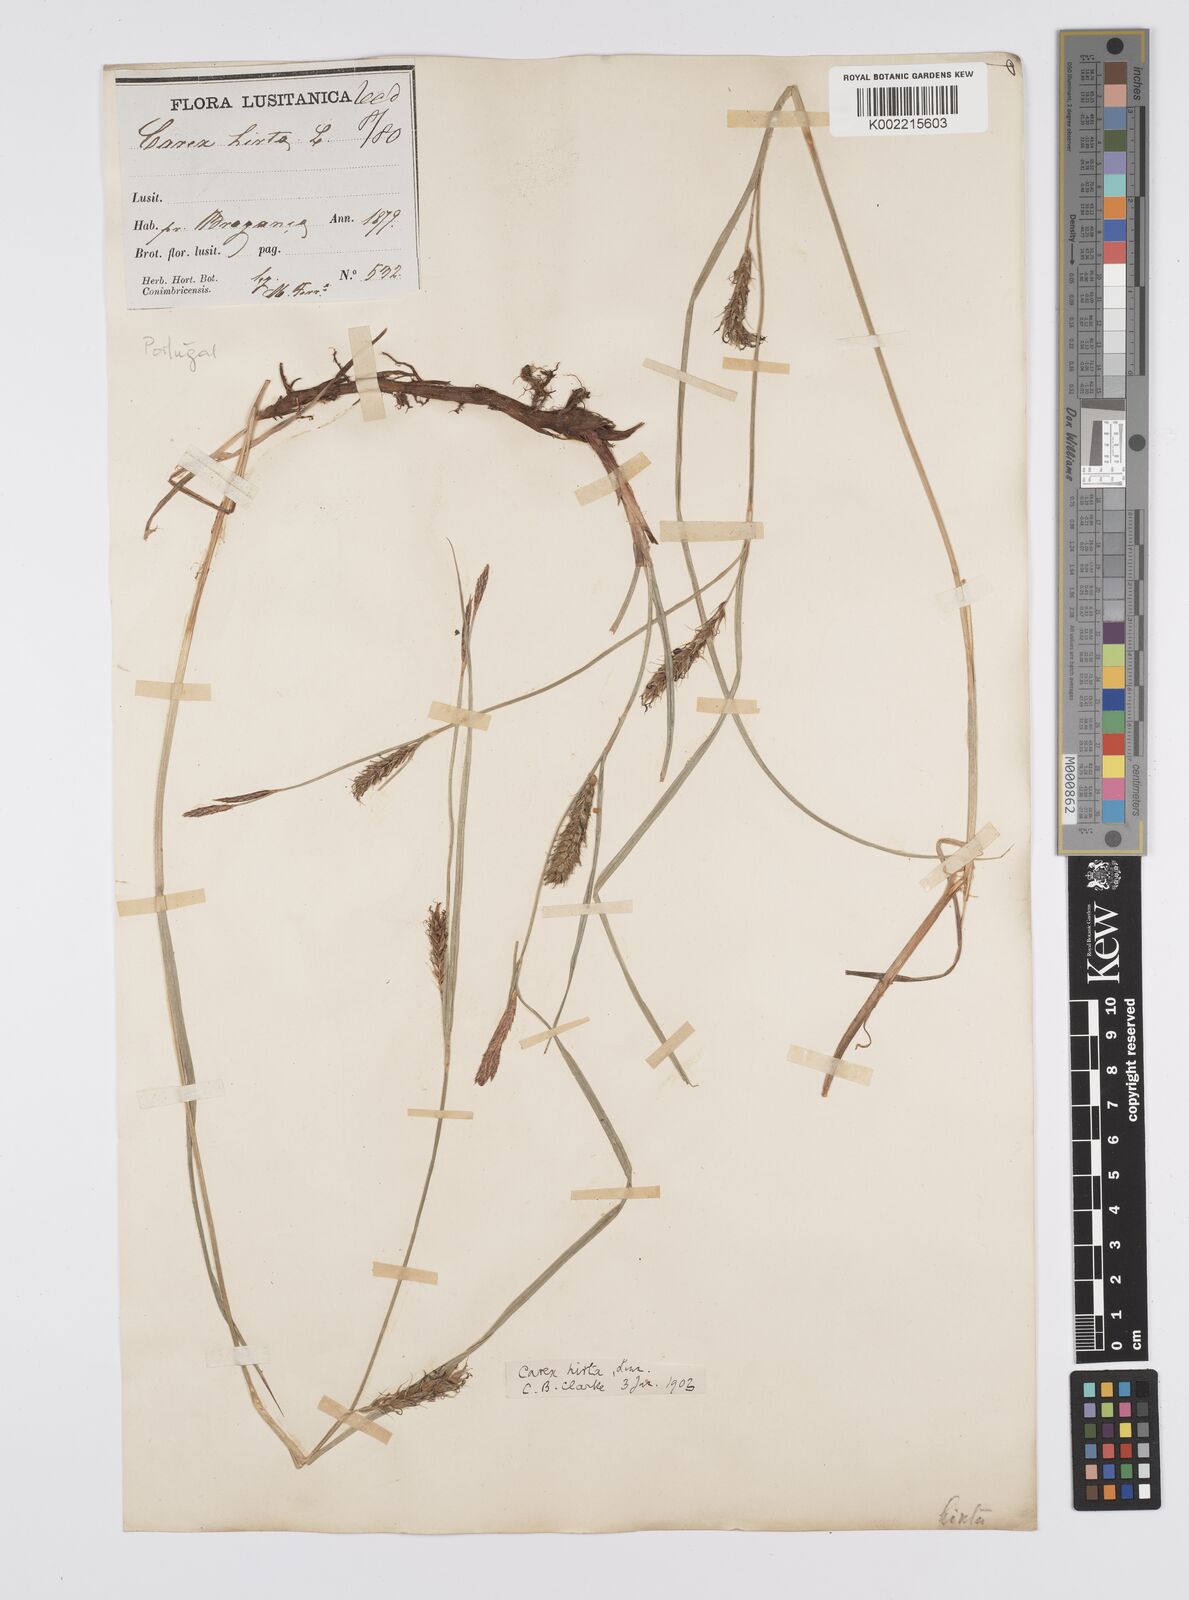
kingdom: Plantae
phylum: Tracheophyta
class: Liliopsida
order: Poales
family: Cyperaceae
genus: Carex
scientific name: Carex hirta
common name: Hairy sedge
